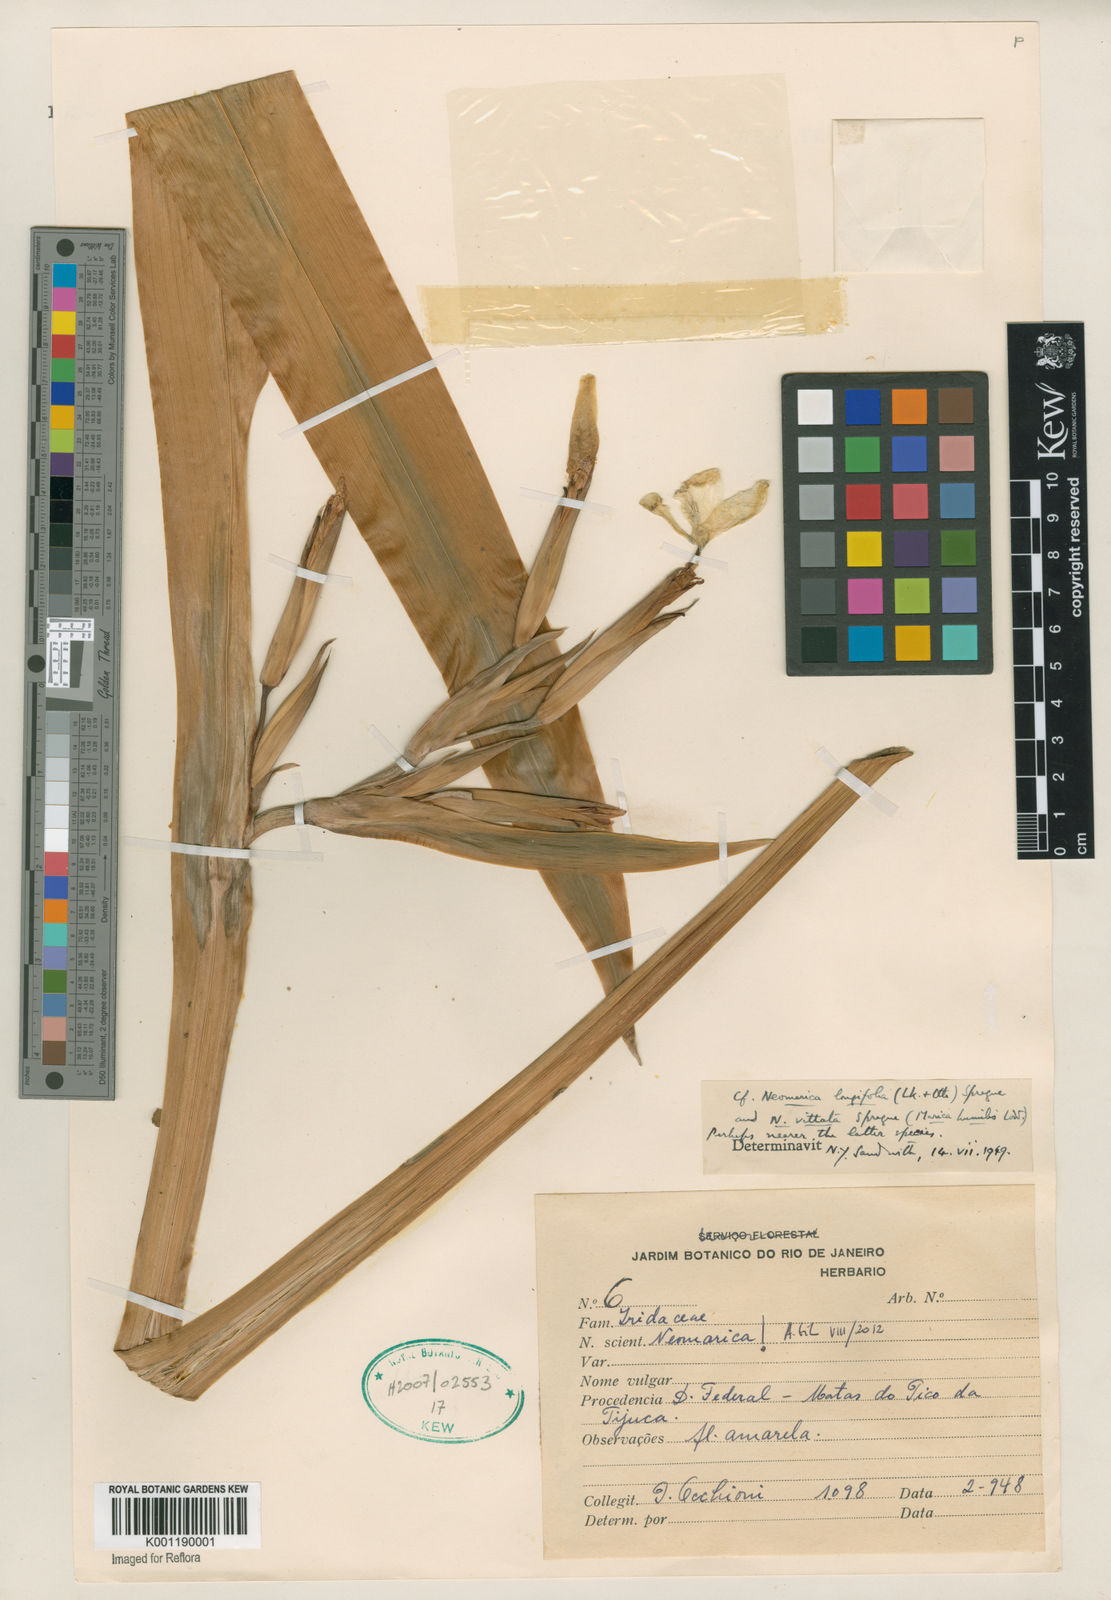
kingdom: Plantae
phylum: Tracheophyta
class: Liliopsida
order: Asparagales
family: Iridaceae
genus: Trimezia
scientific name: Trimezia
